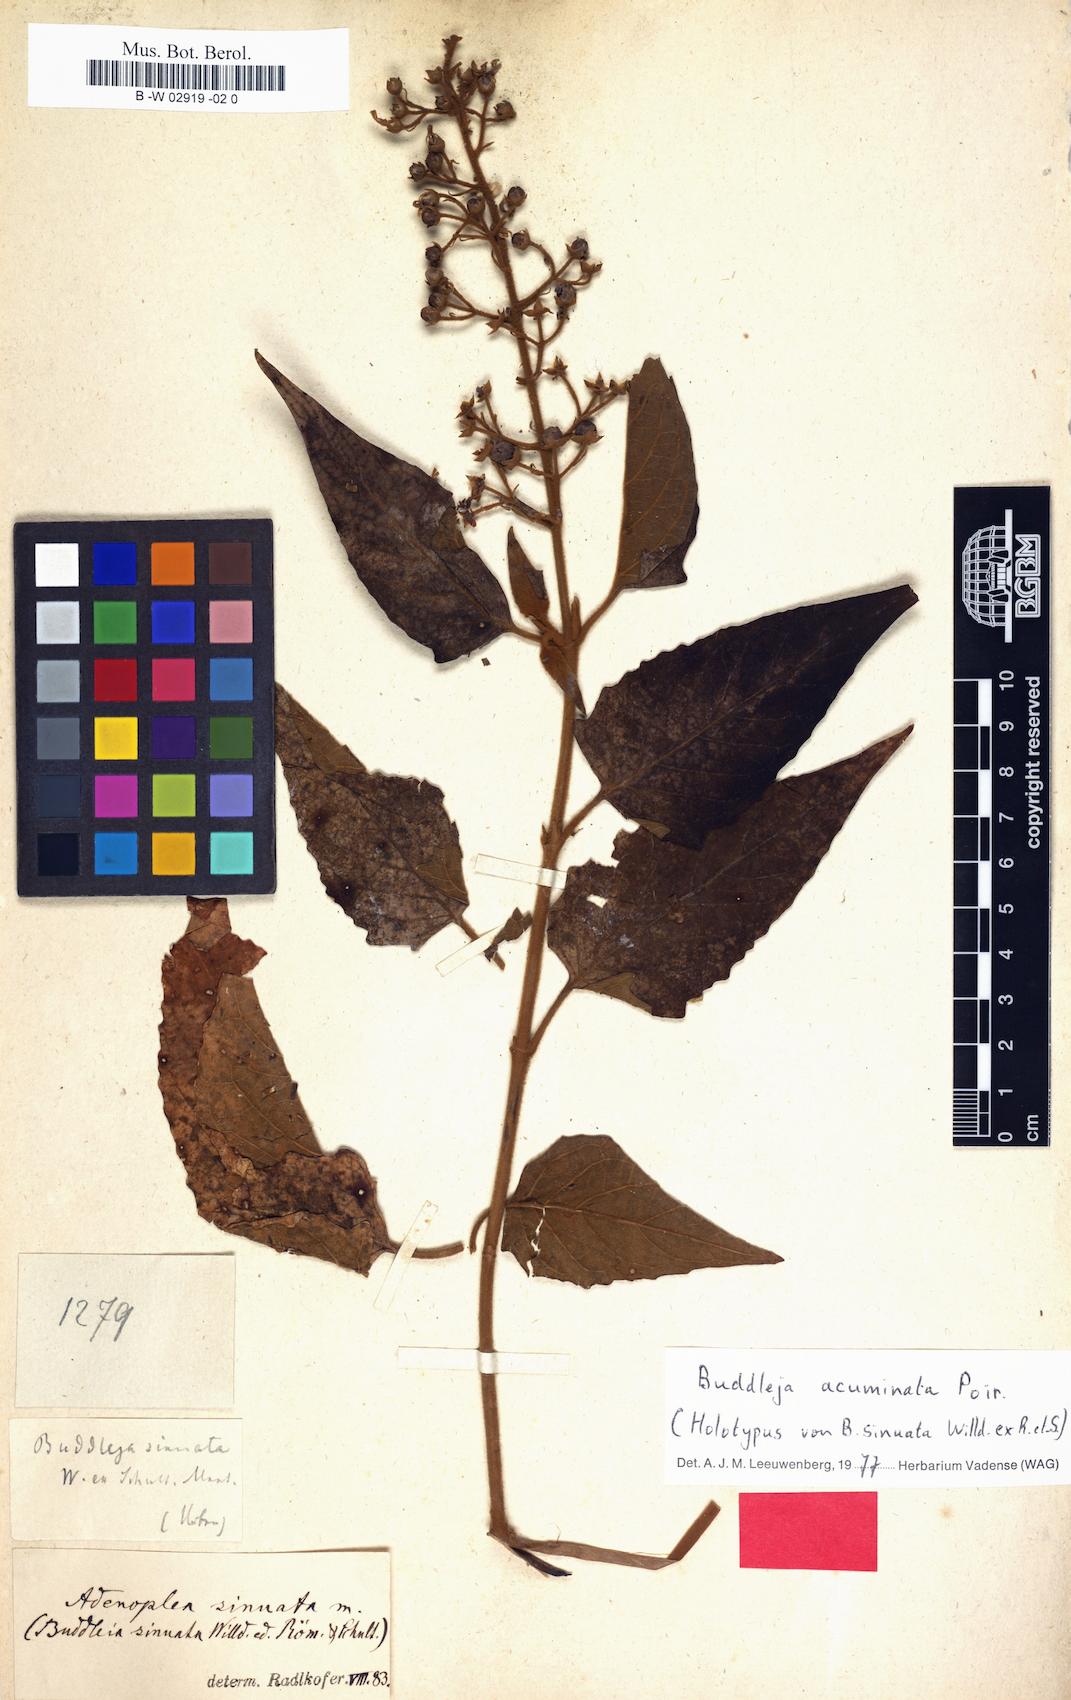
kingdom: Plantae
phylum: Tracheophyta
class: Magnoliopsida
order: Lamiales
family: Scrophulariaceae
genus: Buddleja
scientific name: Buddleja
